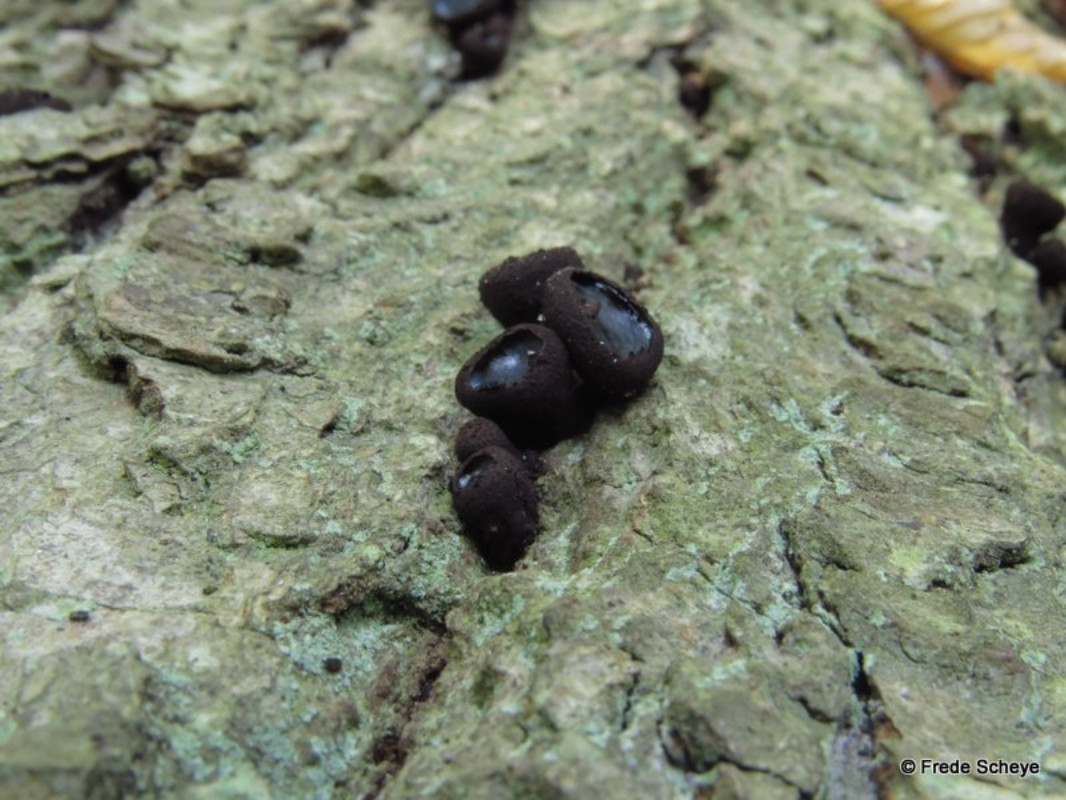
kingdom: Fungi
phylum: Ascomycota
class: Leotiomycetes
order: Phacidiales
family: Phacidiaceae
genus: Bulgaria
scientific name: Bulgaria inquinans
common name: afsmittende topsvamp
